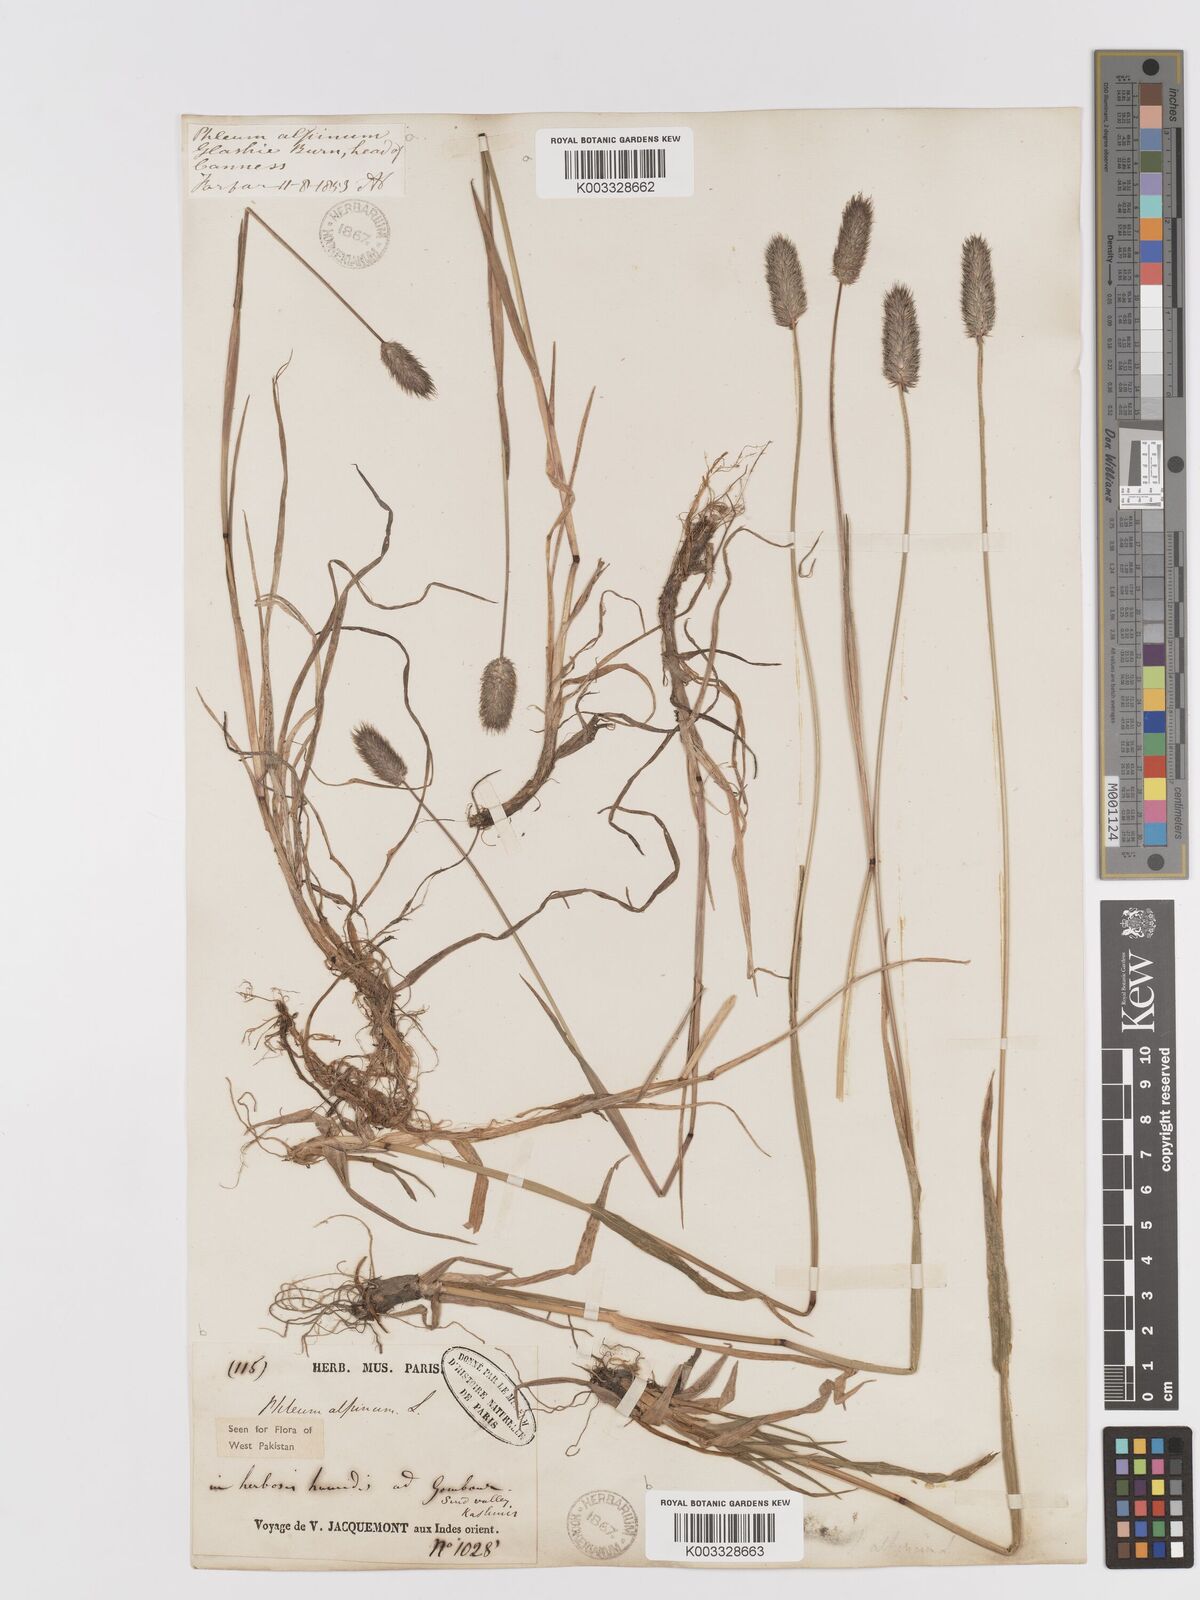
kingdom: Plantae
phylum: Tracheophyta
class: Liliopsida
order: Poales
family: Poaceae
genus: Phleum
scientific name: Phleum alpinum
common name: Alpine cat's-tail
